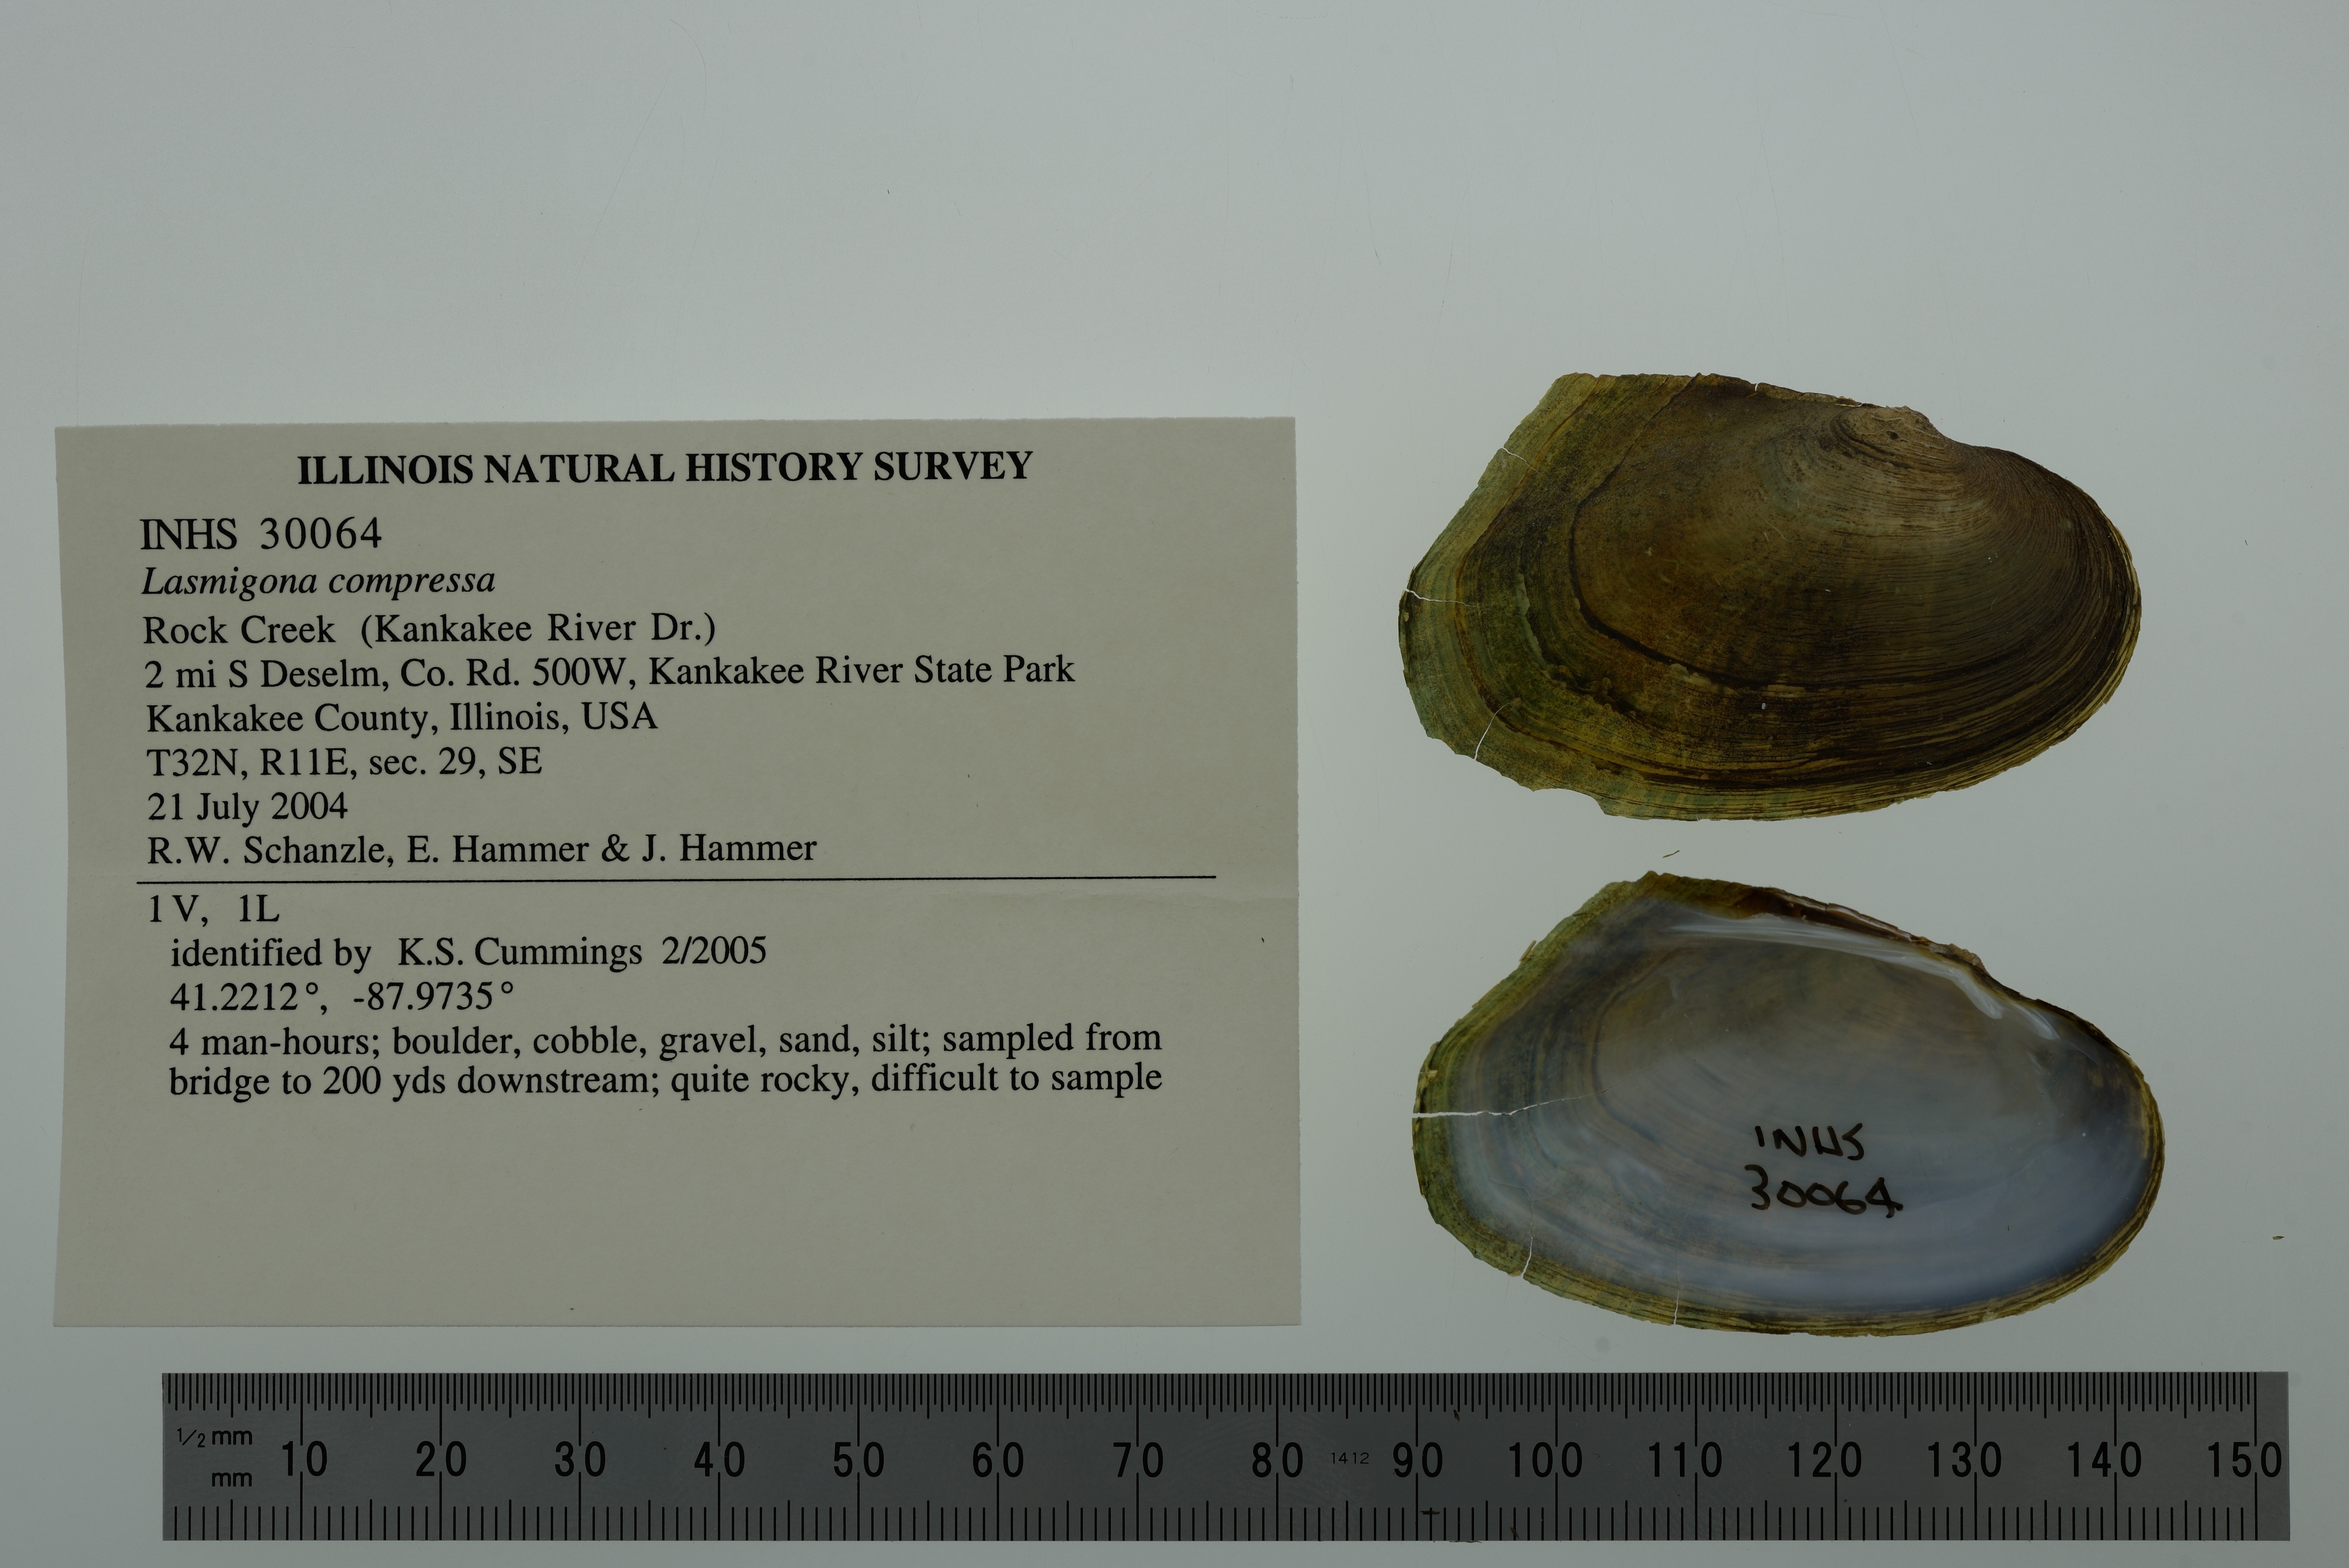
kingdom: Animalia
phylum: Mollusca
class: Bivalvia
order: Unionida
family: Unionidae
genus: Lasmigona
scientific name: Lasmigona compressa
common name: Creek heelsplitter
